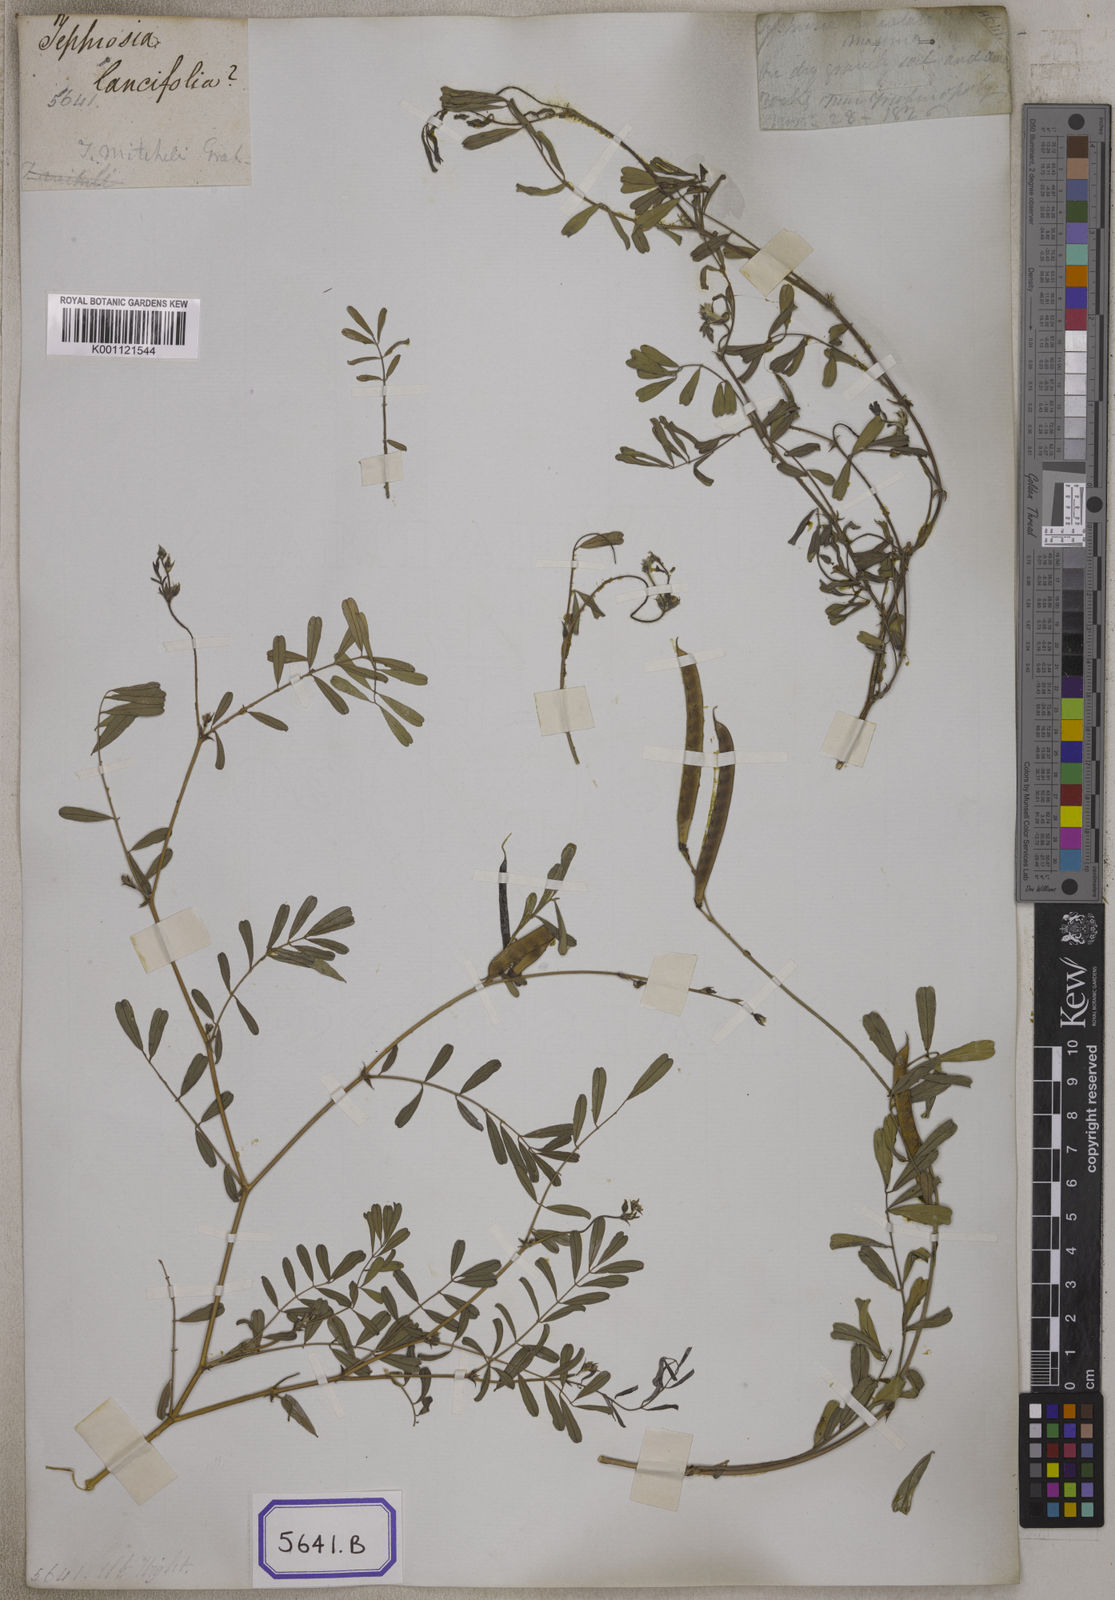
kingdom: Plantae
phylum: Tracheophyta
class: Magnoliopsida
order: Fabales
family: Fabaceae
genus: Tephrosia
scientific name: Tephrosia purpurea
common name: Fishpoison
